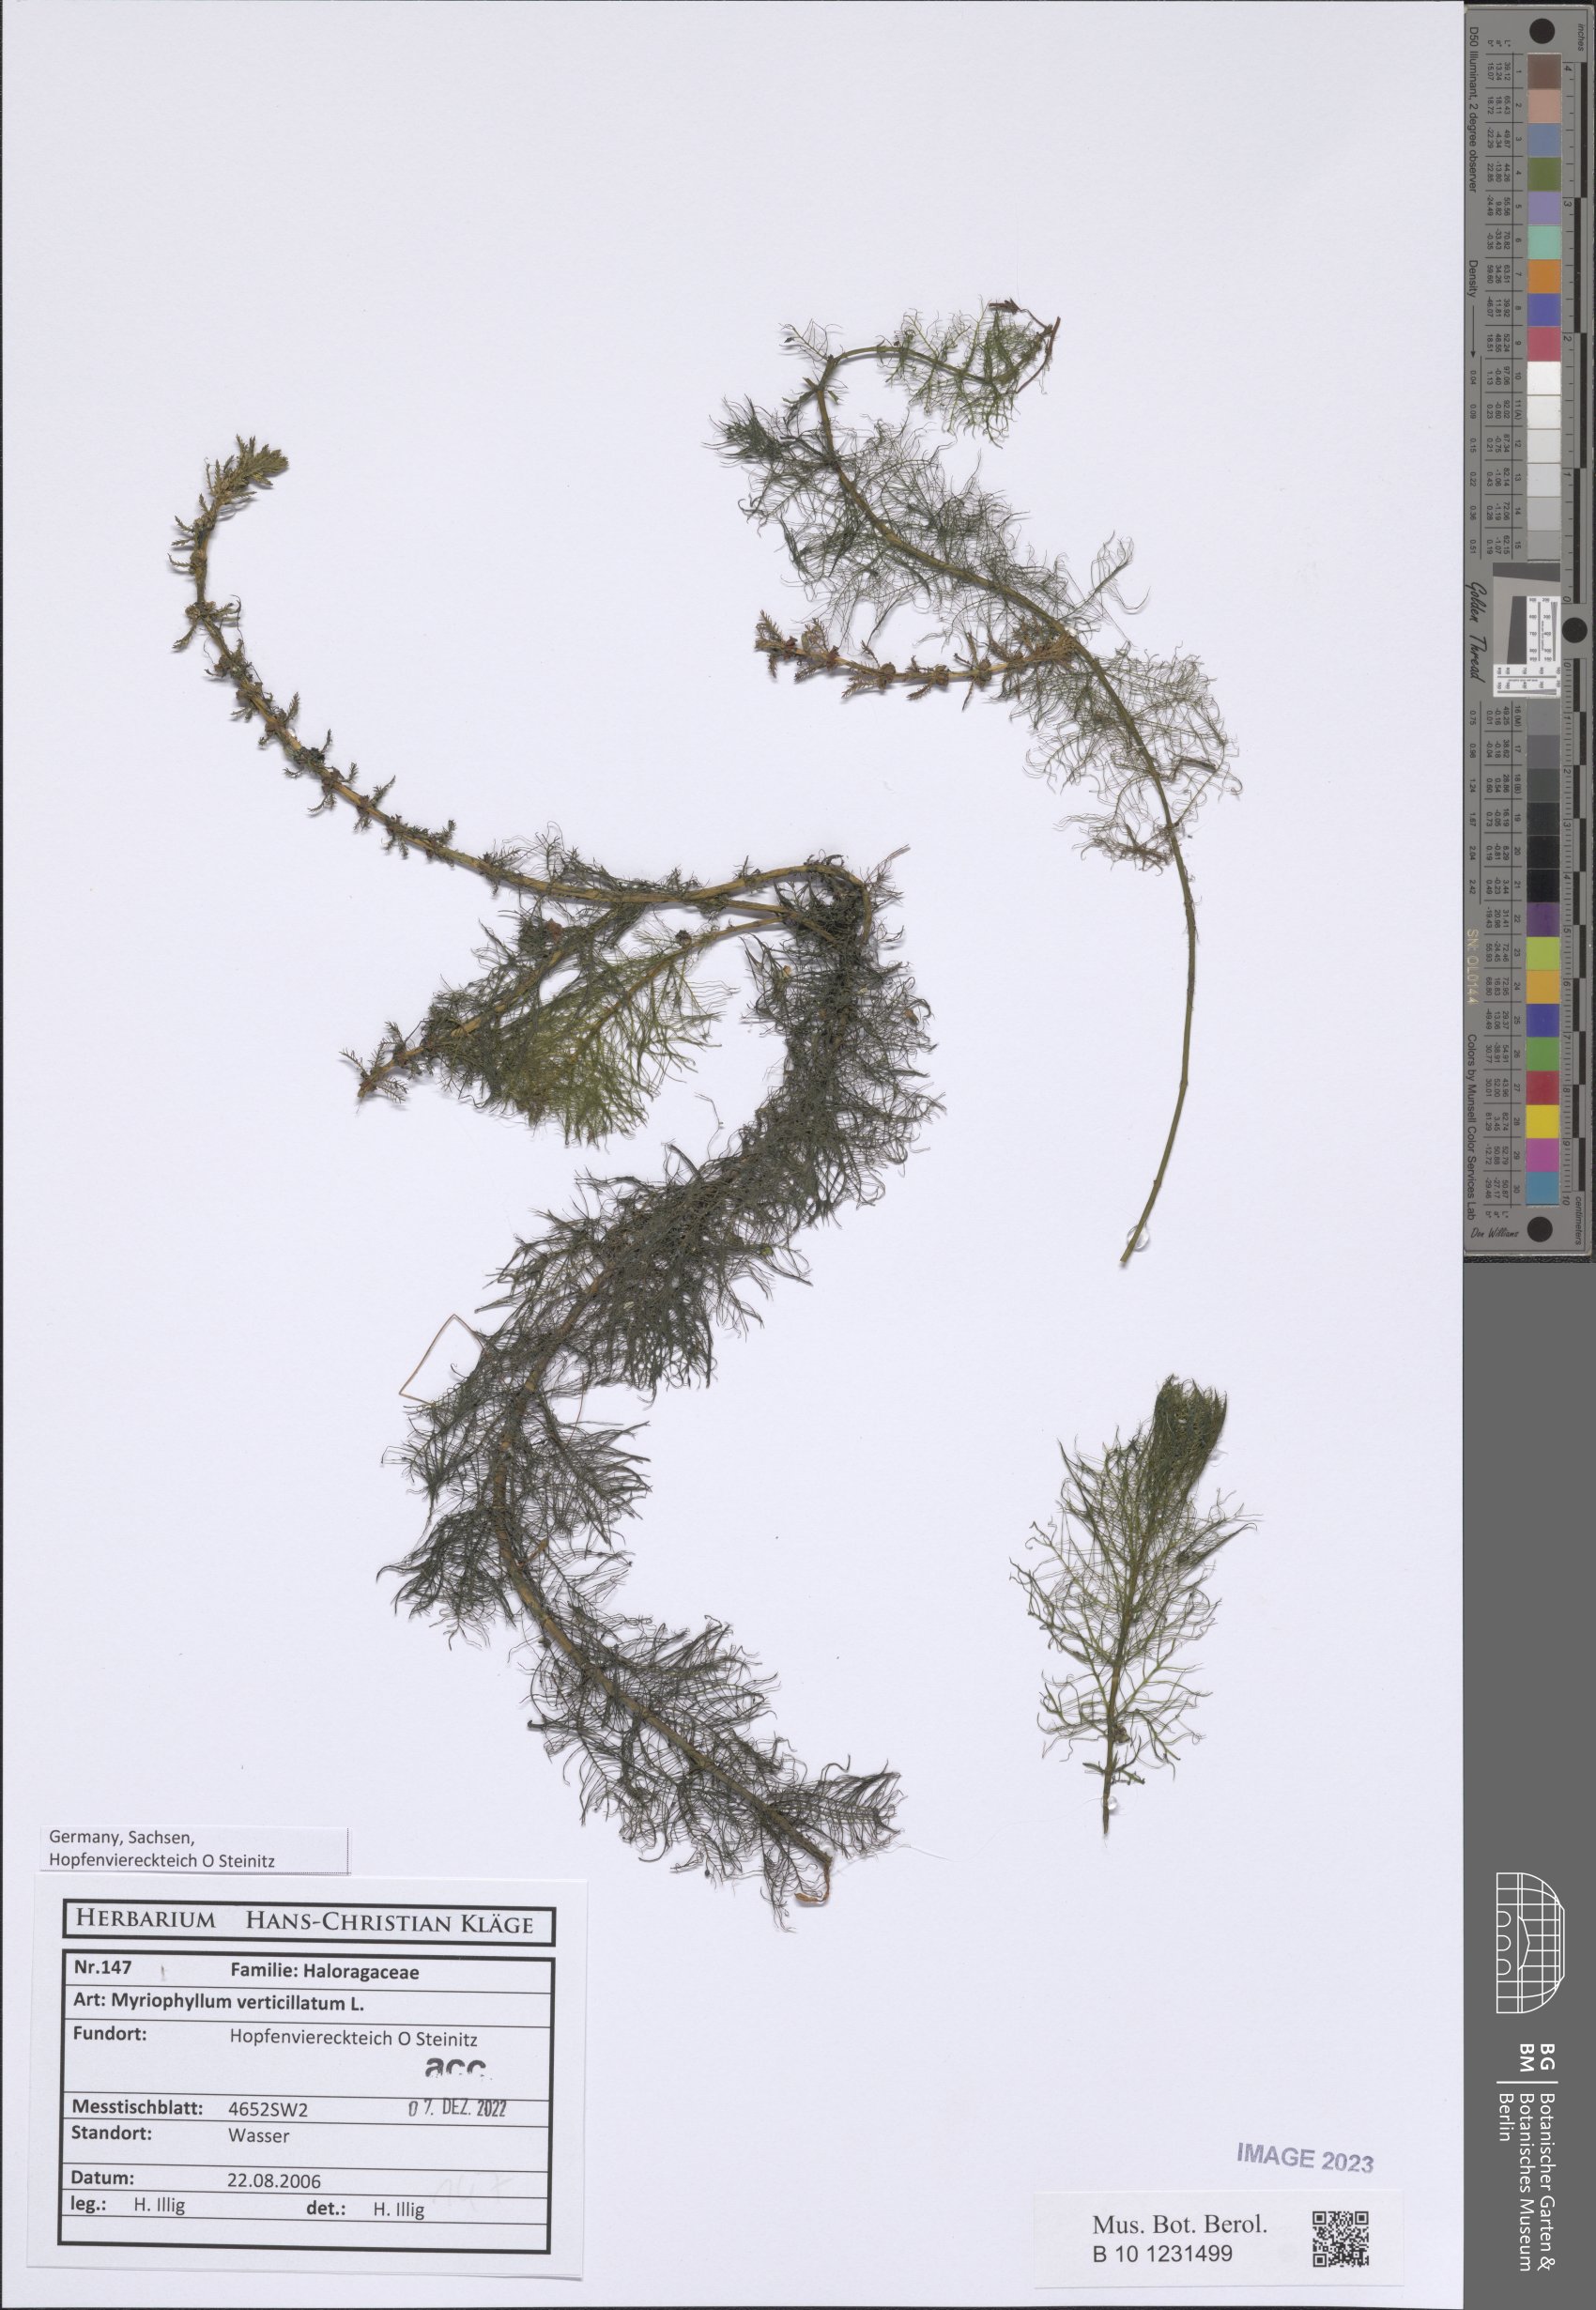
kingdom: Plantae
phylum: Tracheophyta
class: Magnoliopsida
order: Saxifragales
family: Haloragaceae
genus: Myriophyllum
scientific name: Myriophyllum verticillatum
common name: Whorled water-milfoil
